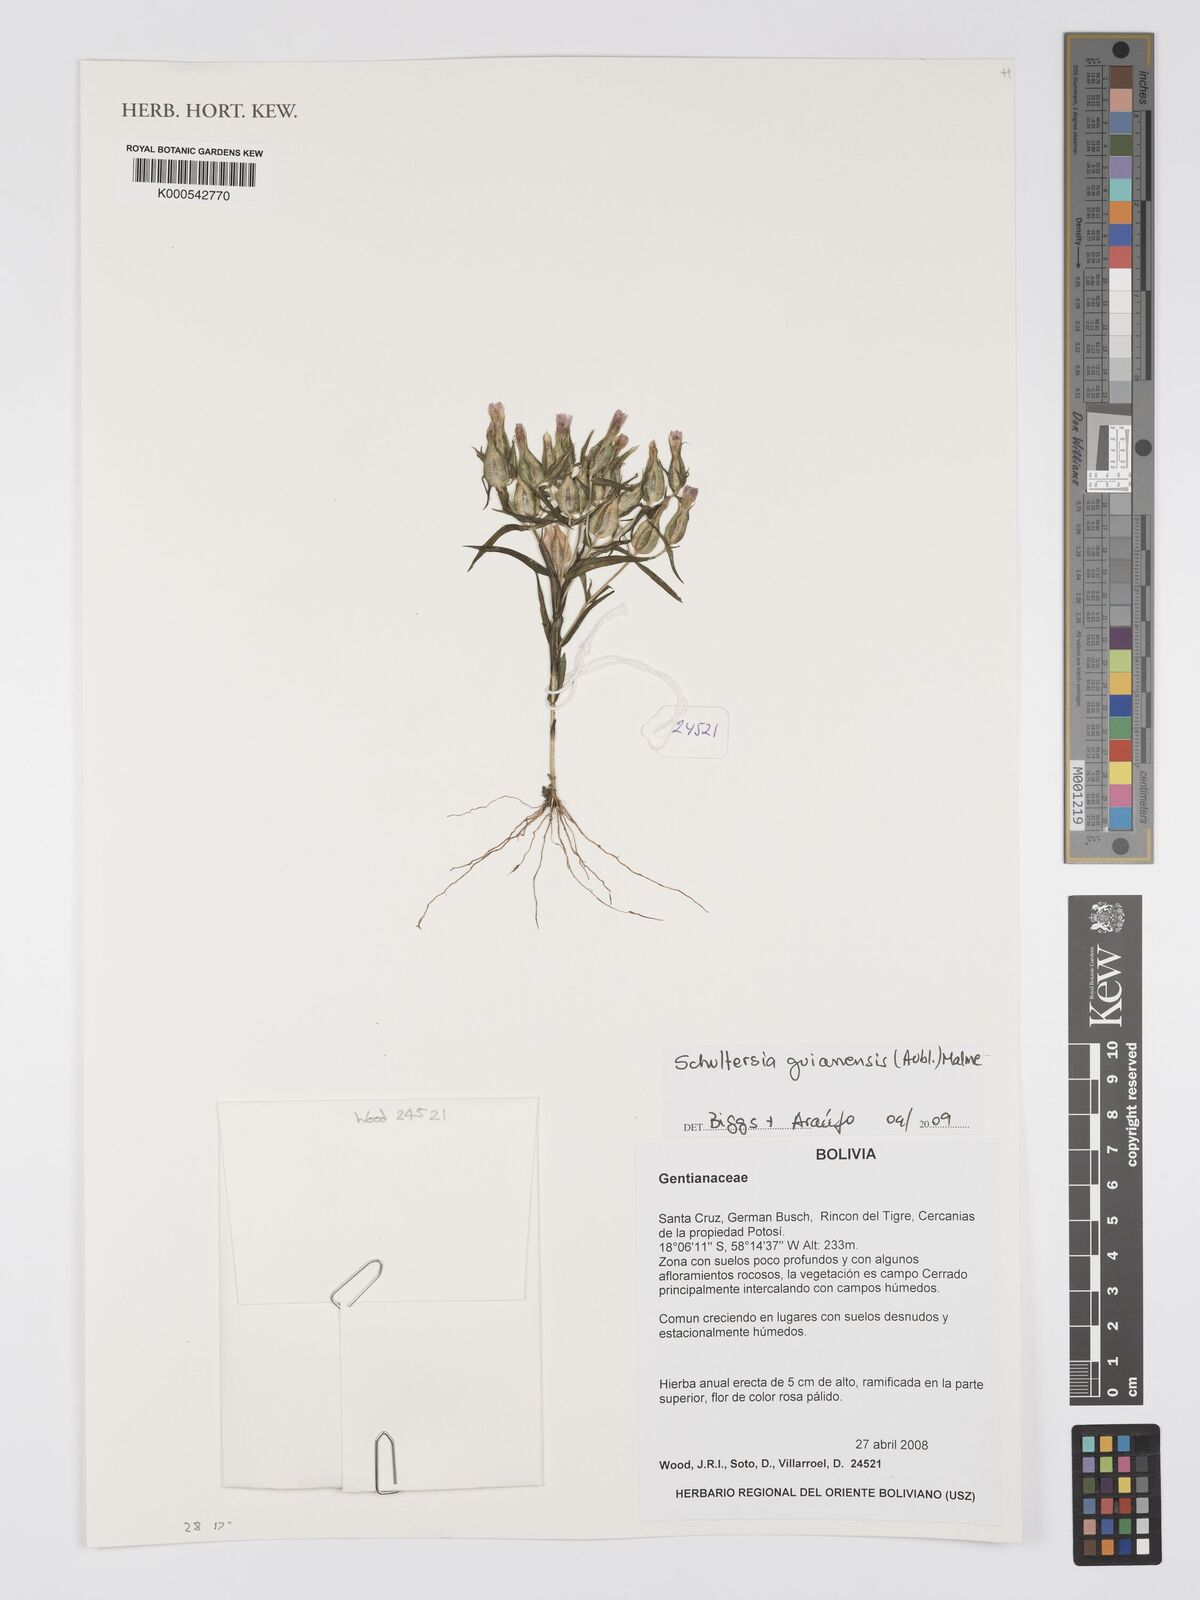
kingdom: Plantae
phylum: Tracheophyta
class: Magnoliopsida
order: Gentianales
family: Gentianaceae
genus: Schultesia
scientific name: Schultesia guianensis
